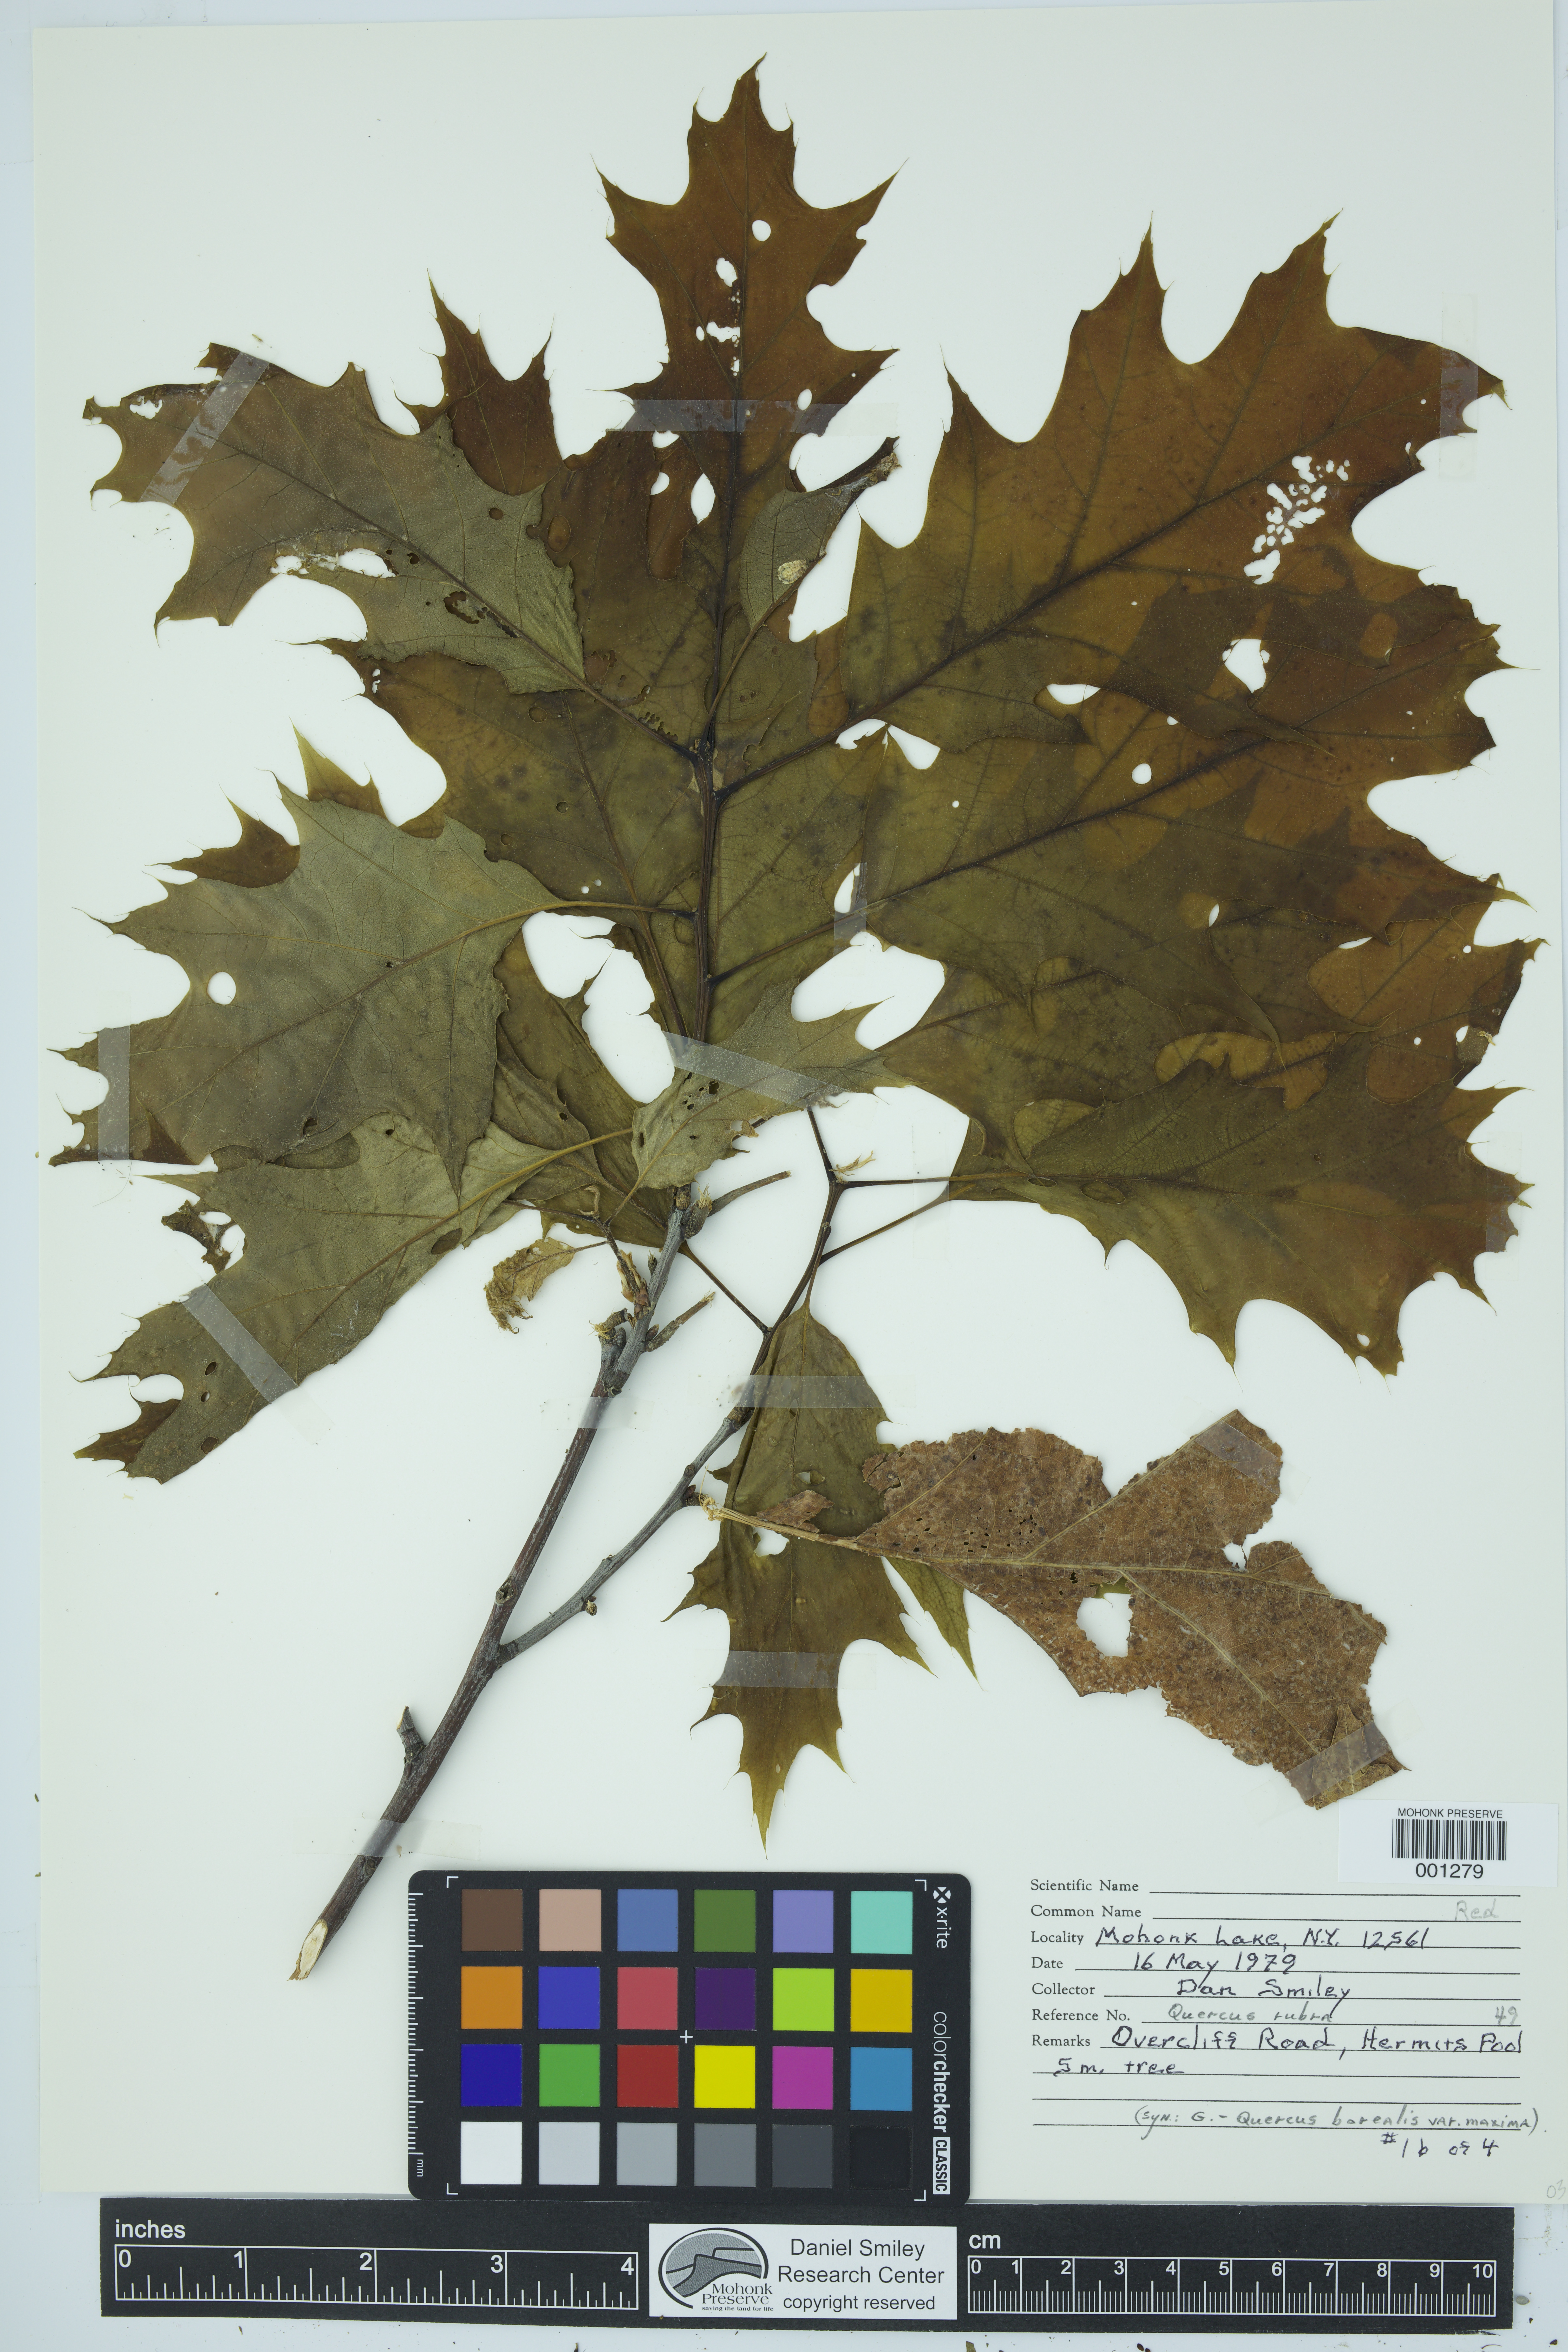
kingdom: Plantae
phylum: Tracheophyta
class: Magnoliopsida
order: Fagales
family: Fagaceae
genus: Quercus
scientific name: Quercus rubra
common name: Red oak
